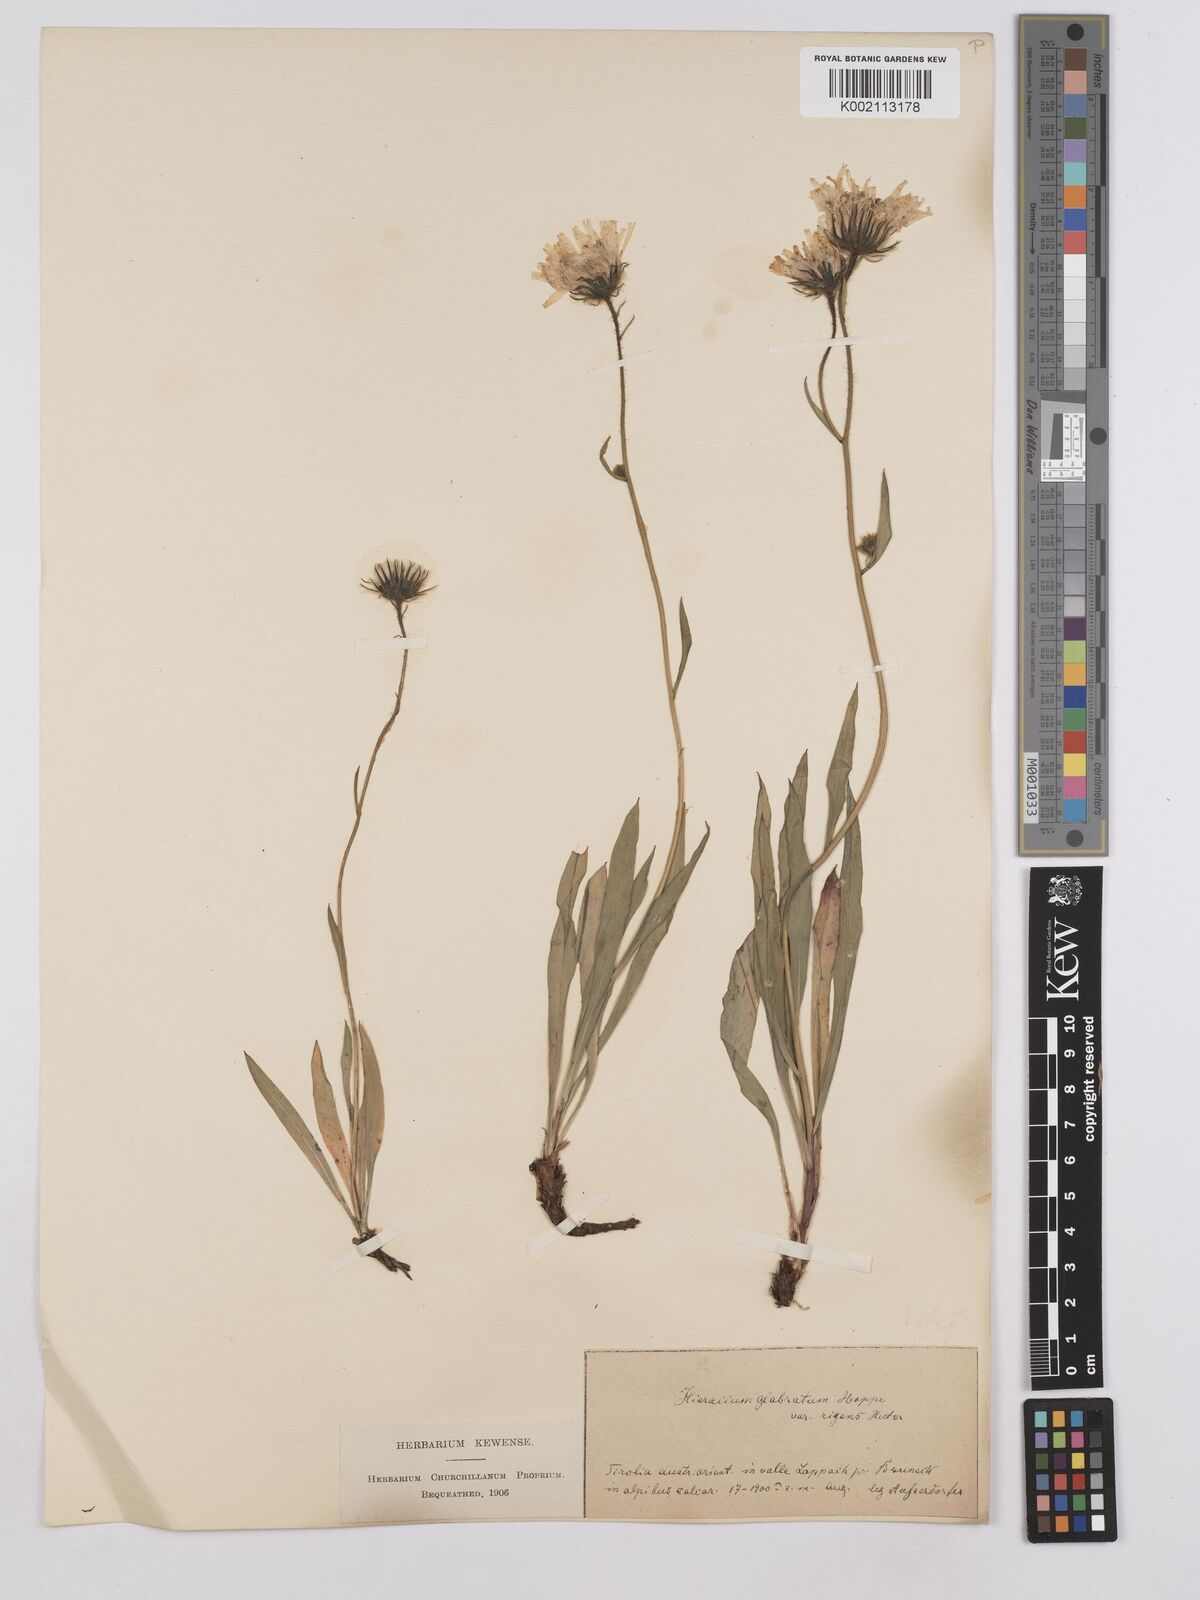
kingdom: Plantae
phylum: Tracheophyta
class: Magnoliopsida
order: Asterales
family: Asteraceae
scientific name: Asteraceae
